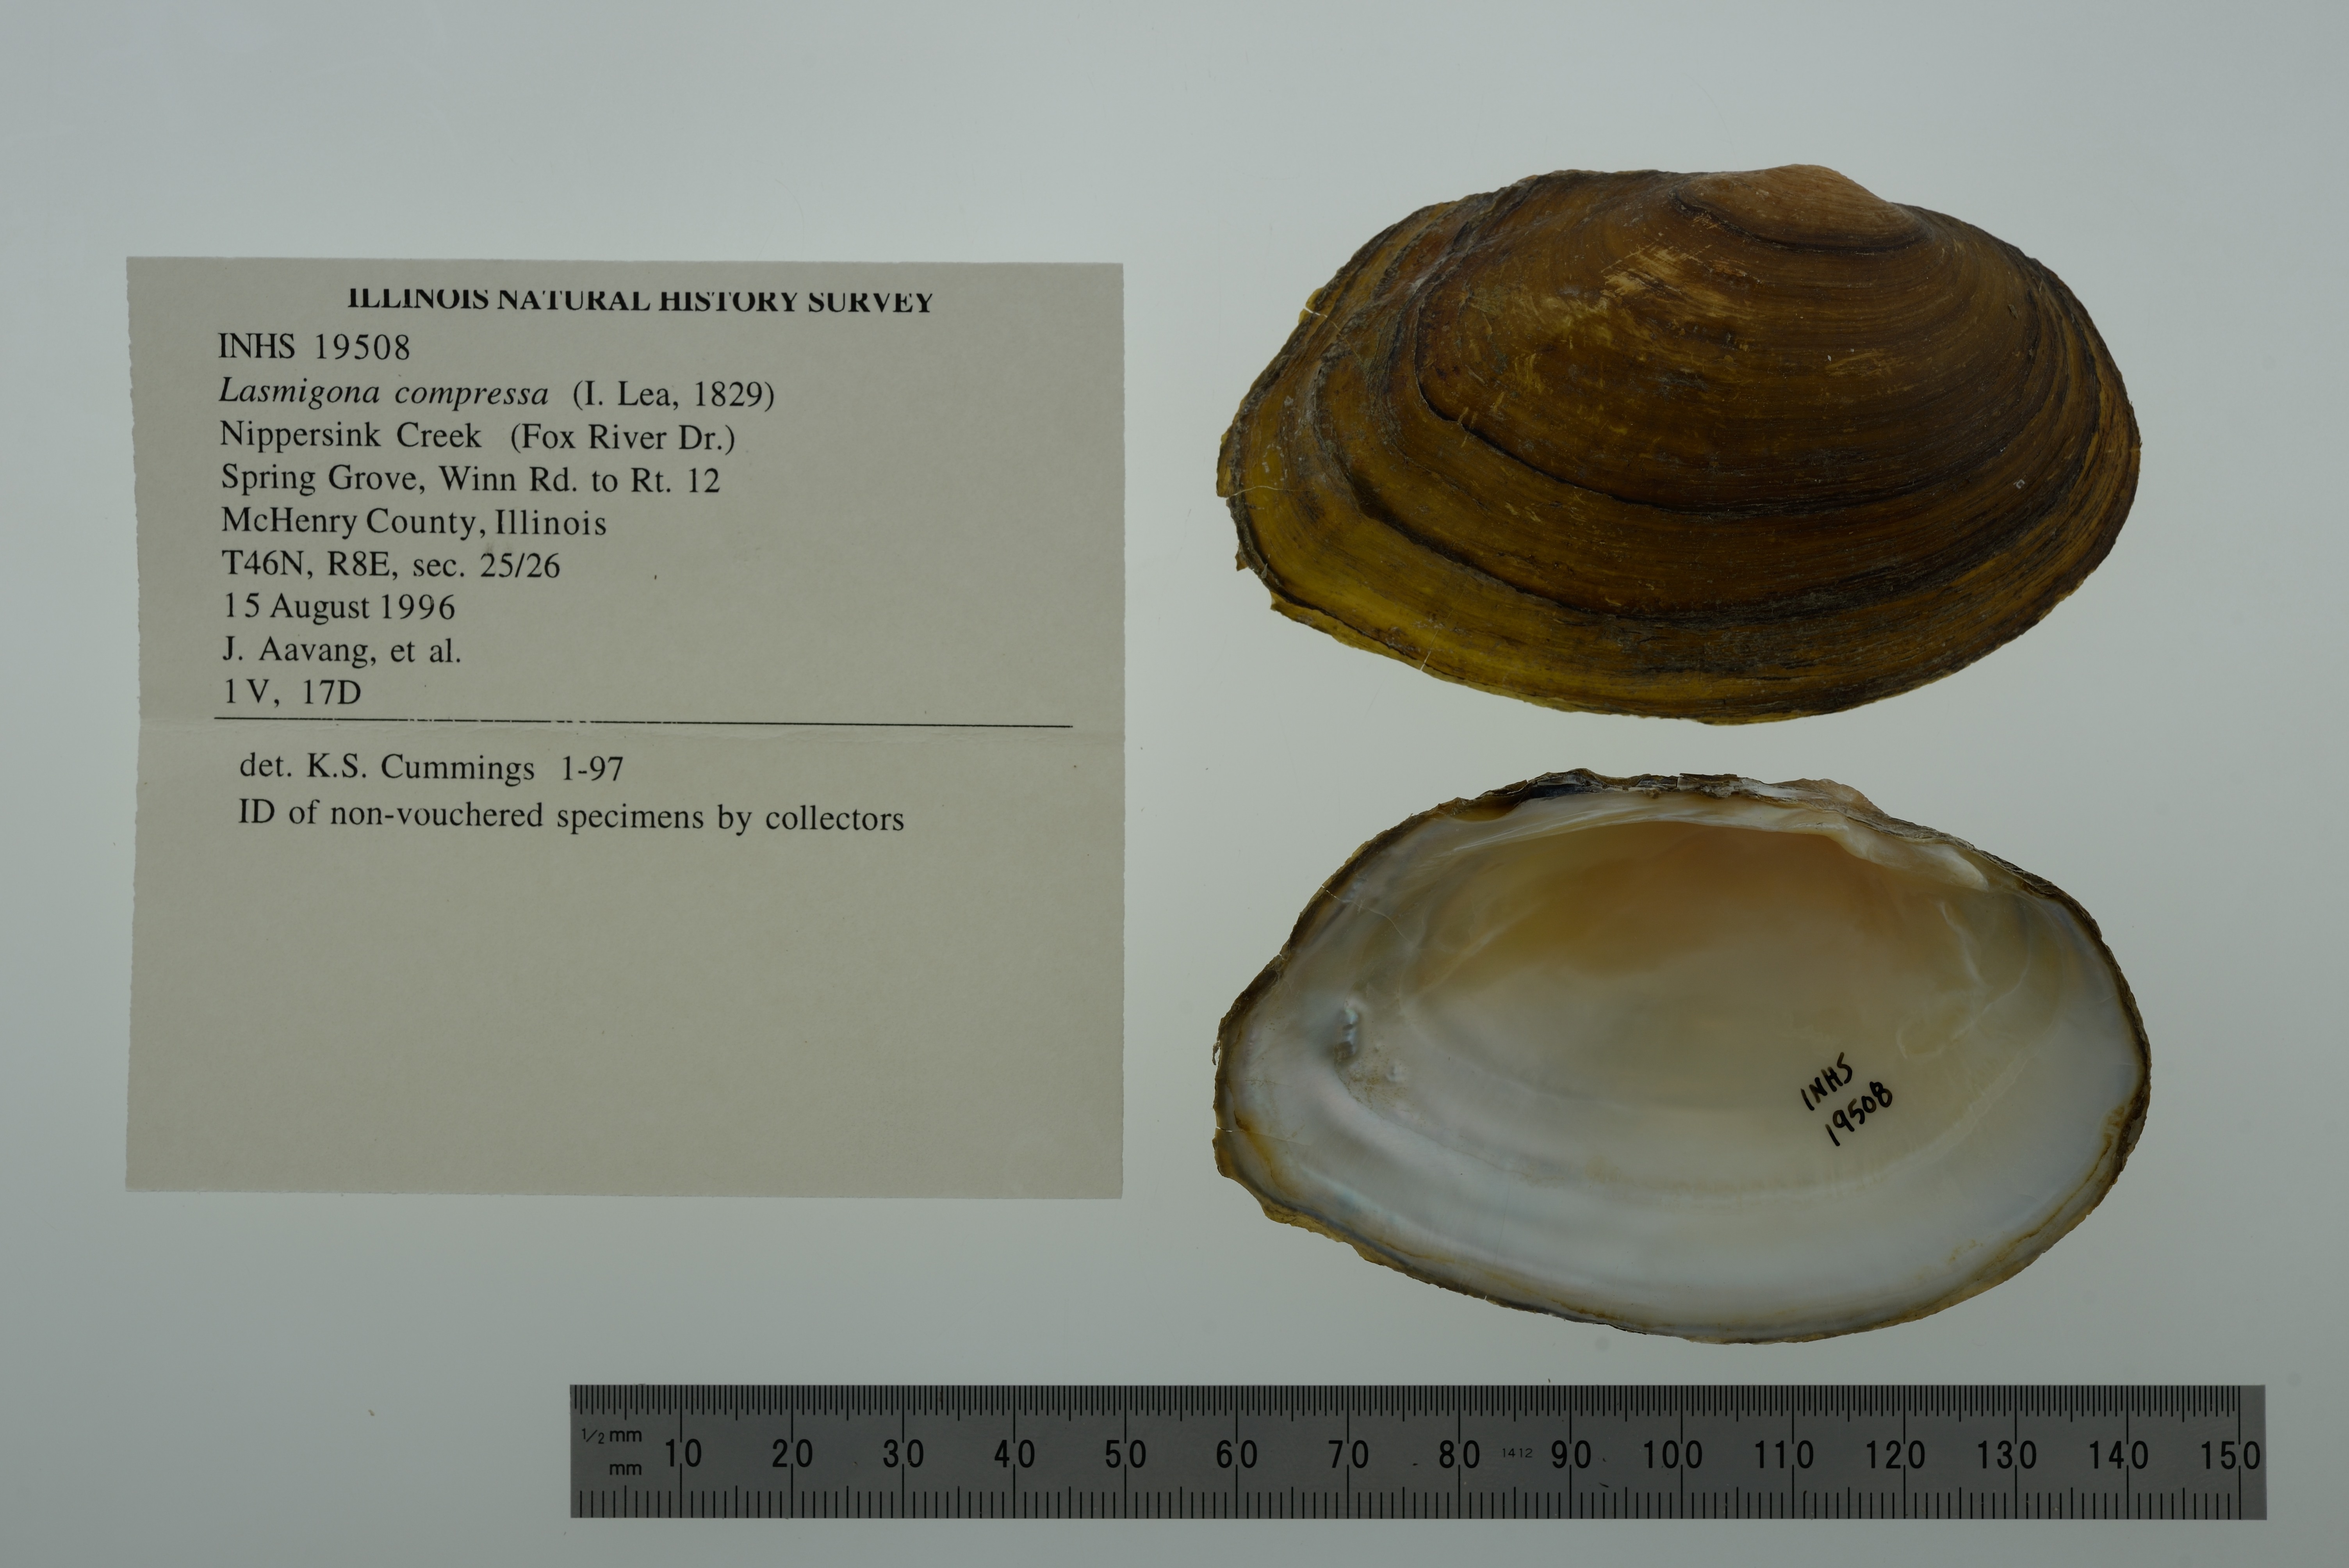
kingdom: Animalia
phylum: Mollusca
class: Bivalvia
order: Unionida
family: Unionidae
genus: Lasmigona
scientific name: Lasmigona compressa
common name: Creek heelsplitter
